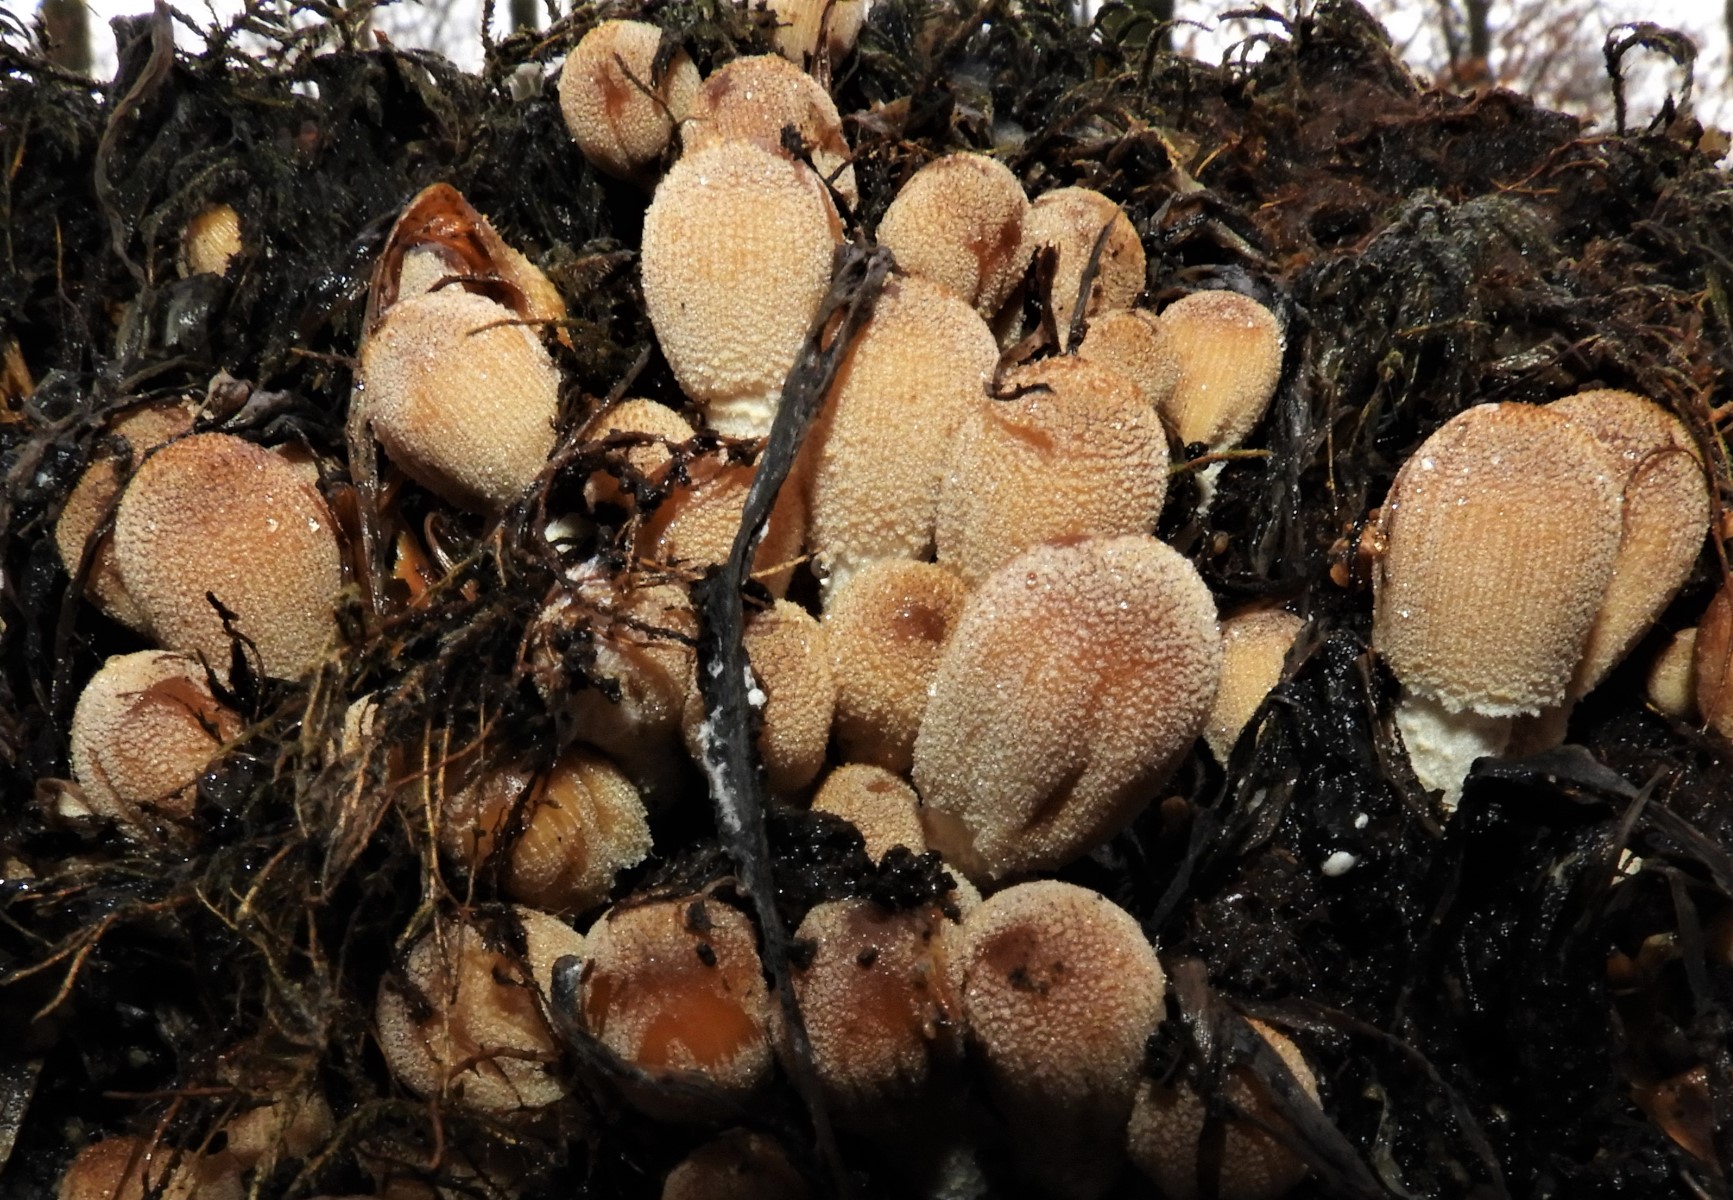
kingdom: Fungi
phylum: Basidiomycota
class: Agaricomycetes
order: Agaricales
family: Psathyrellaceae
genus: Coprinellus
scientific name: Coprinellus micaceus
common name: glimmer-blækhat
